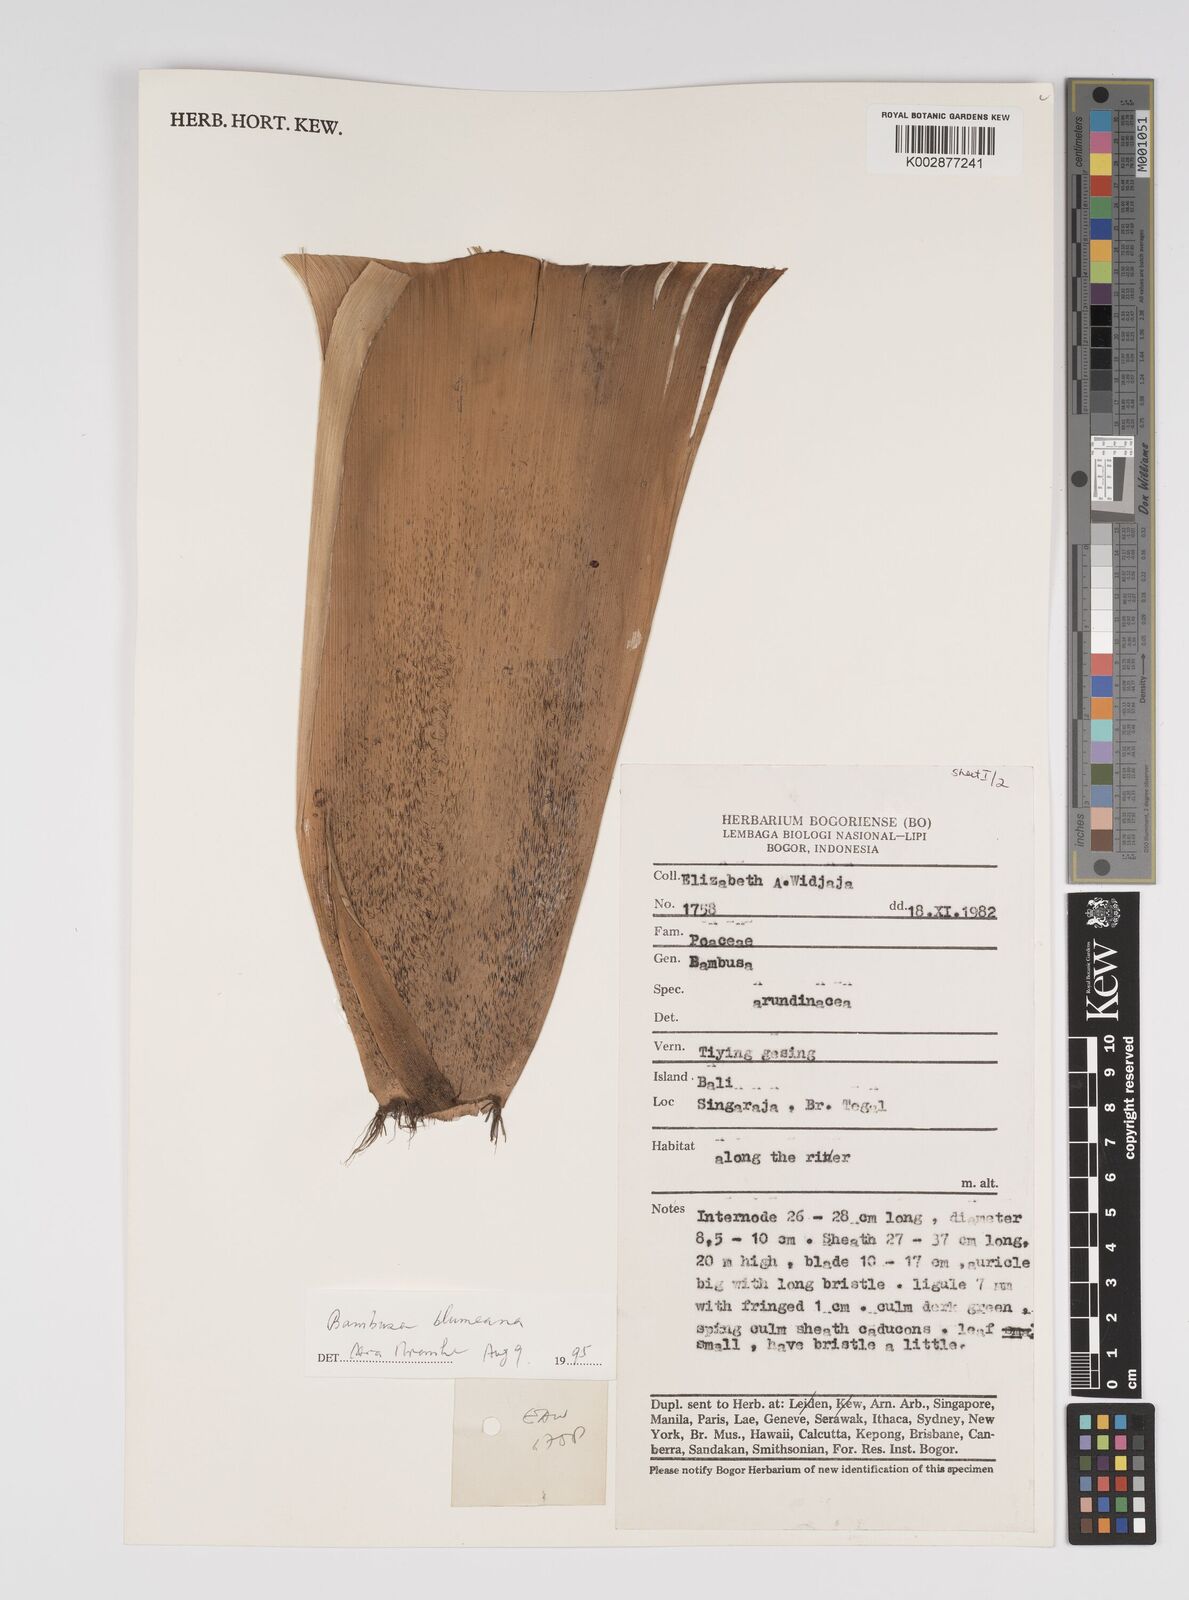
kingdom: Plantae
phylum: Tracheophyta
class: Liliopsida
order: Poales
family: Poaceae
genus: Bambusa
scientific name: Bambusa
